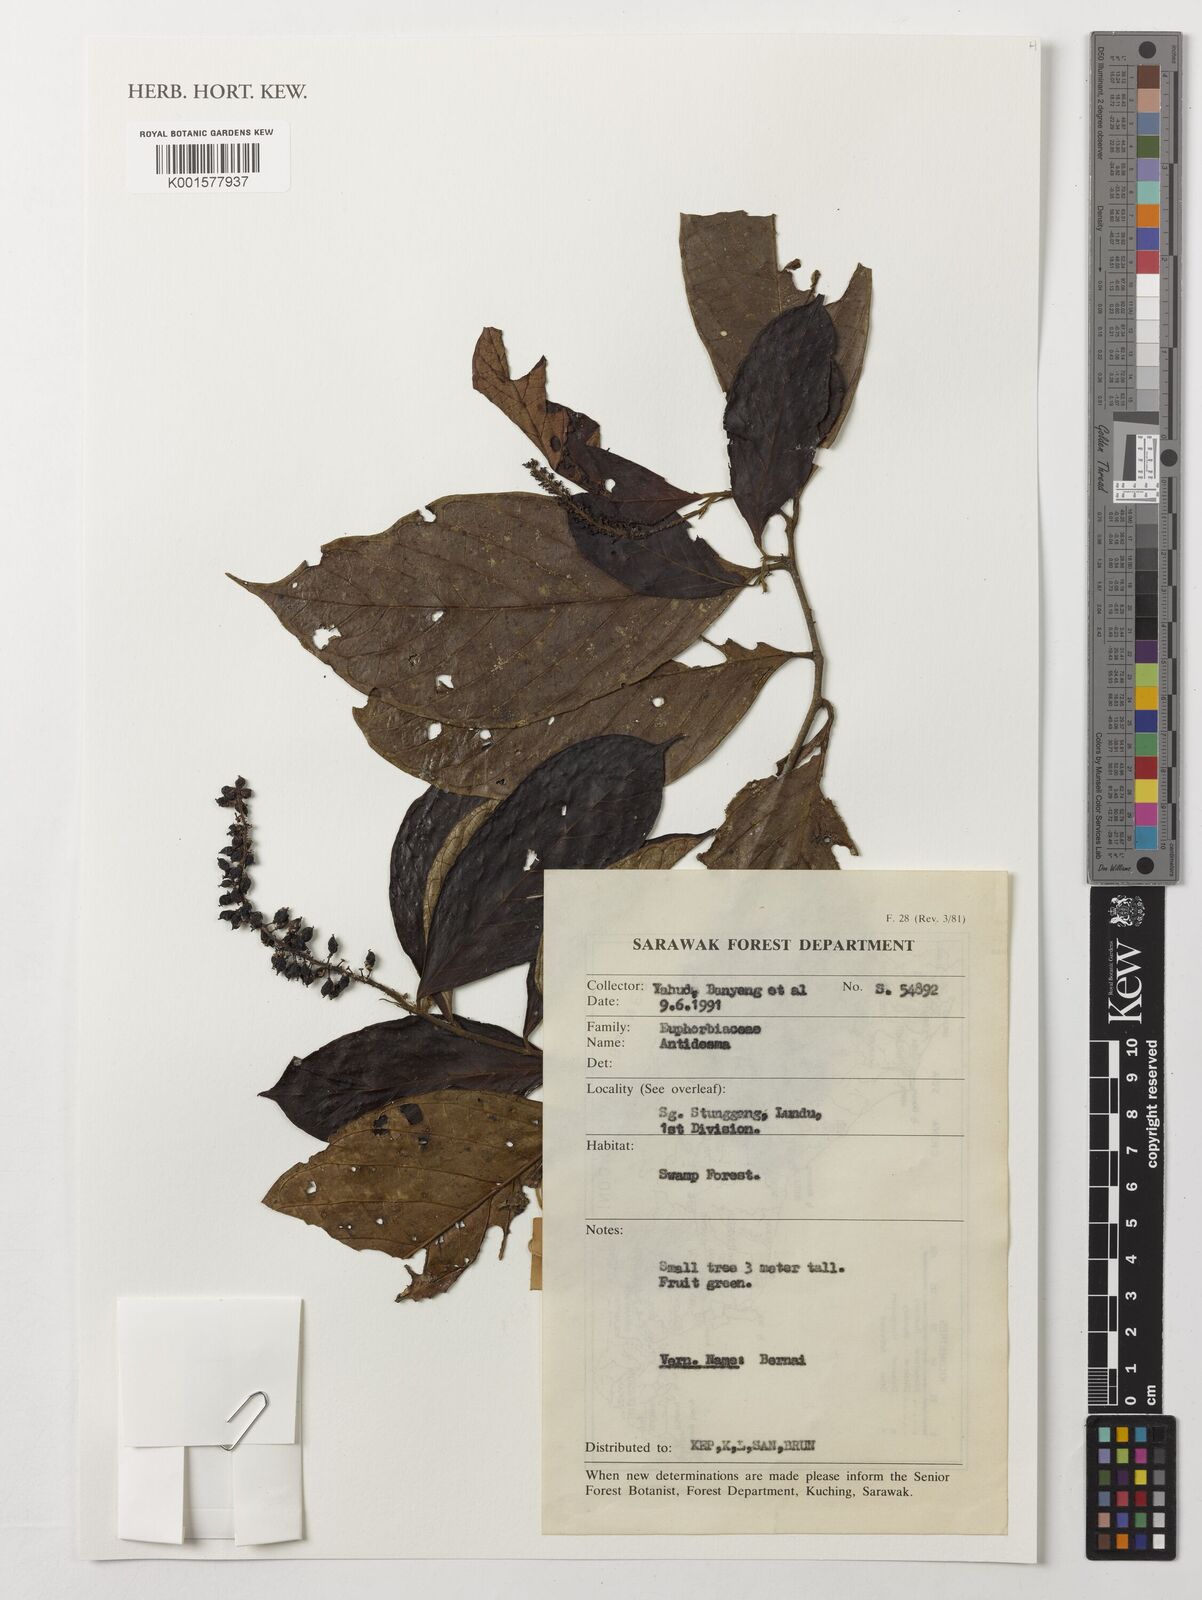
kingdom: Plantae
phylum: Tracheophyta
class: Magnoliopsida
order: Malpighiales
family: Phyllanthaceae
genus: Antidesma
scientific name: Antidesma
